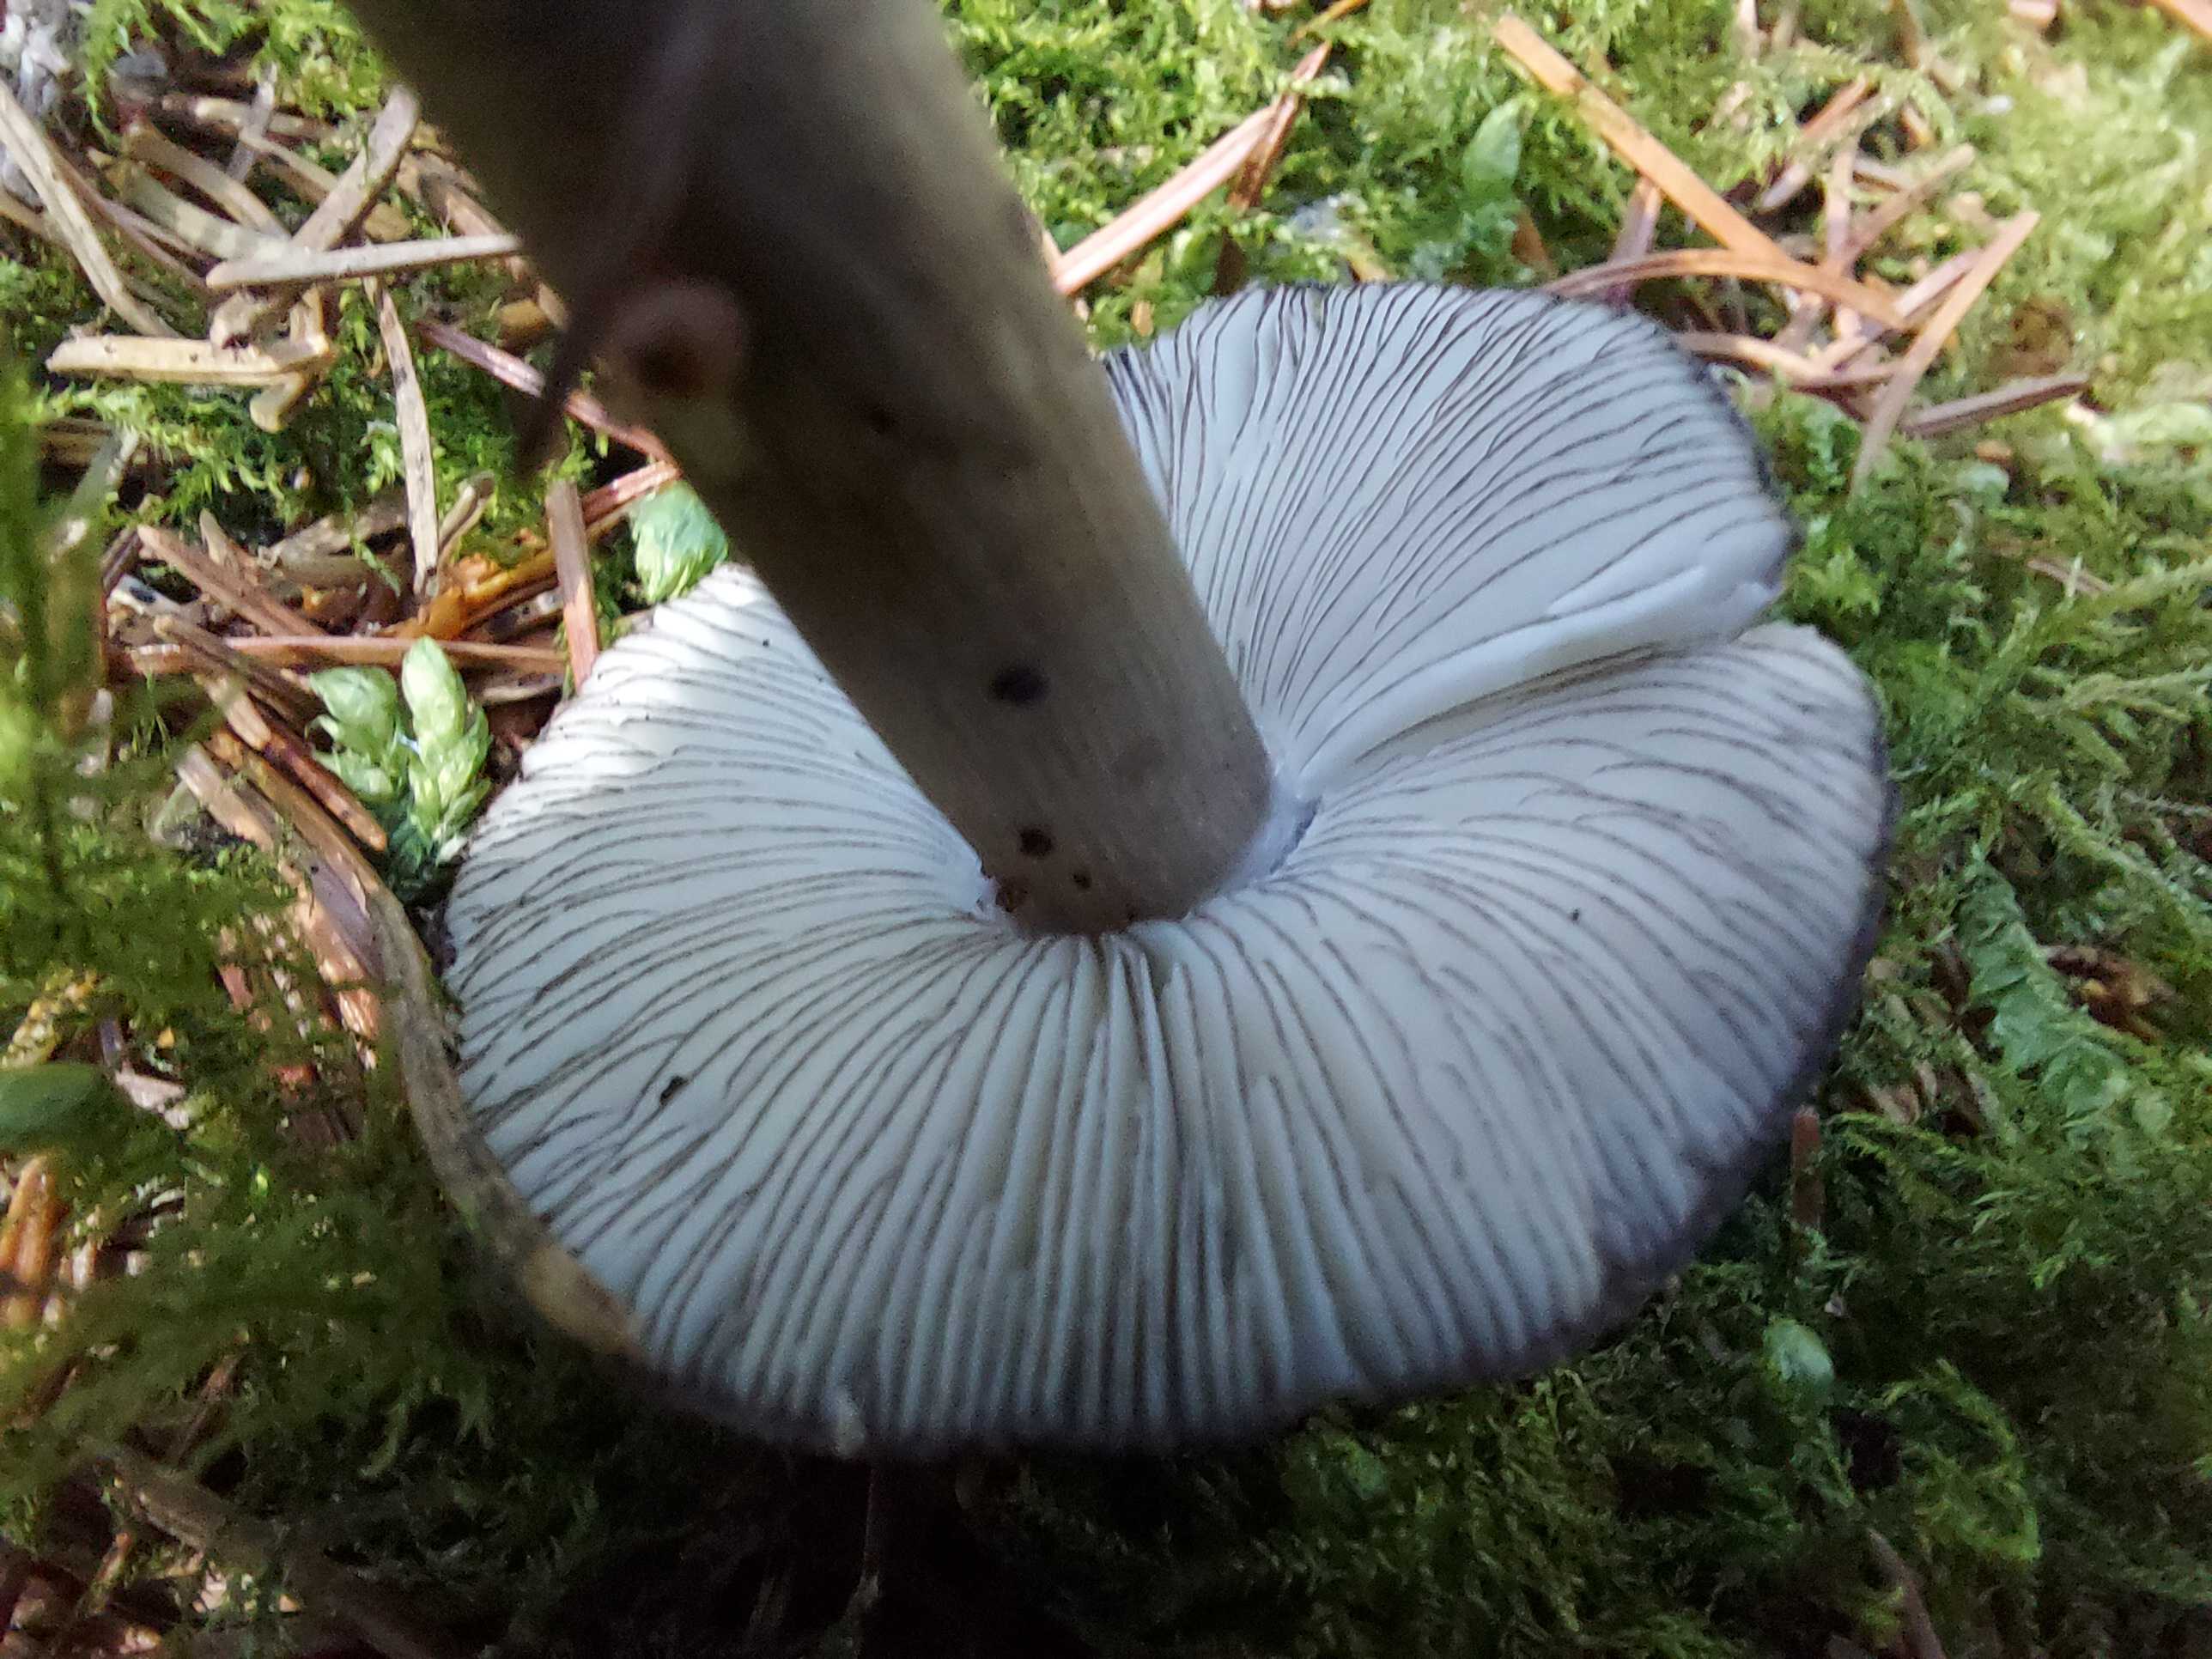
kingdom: Fungi
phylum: Basidiomycota
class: Agaricomycetes
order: Agaricales
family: Pluteaceae
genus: Pluteus
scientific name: Pluteus atromarginatus
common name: sortrandet skærmhat
